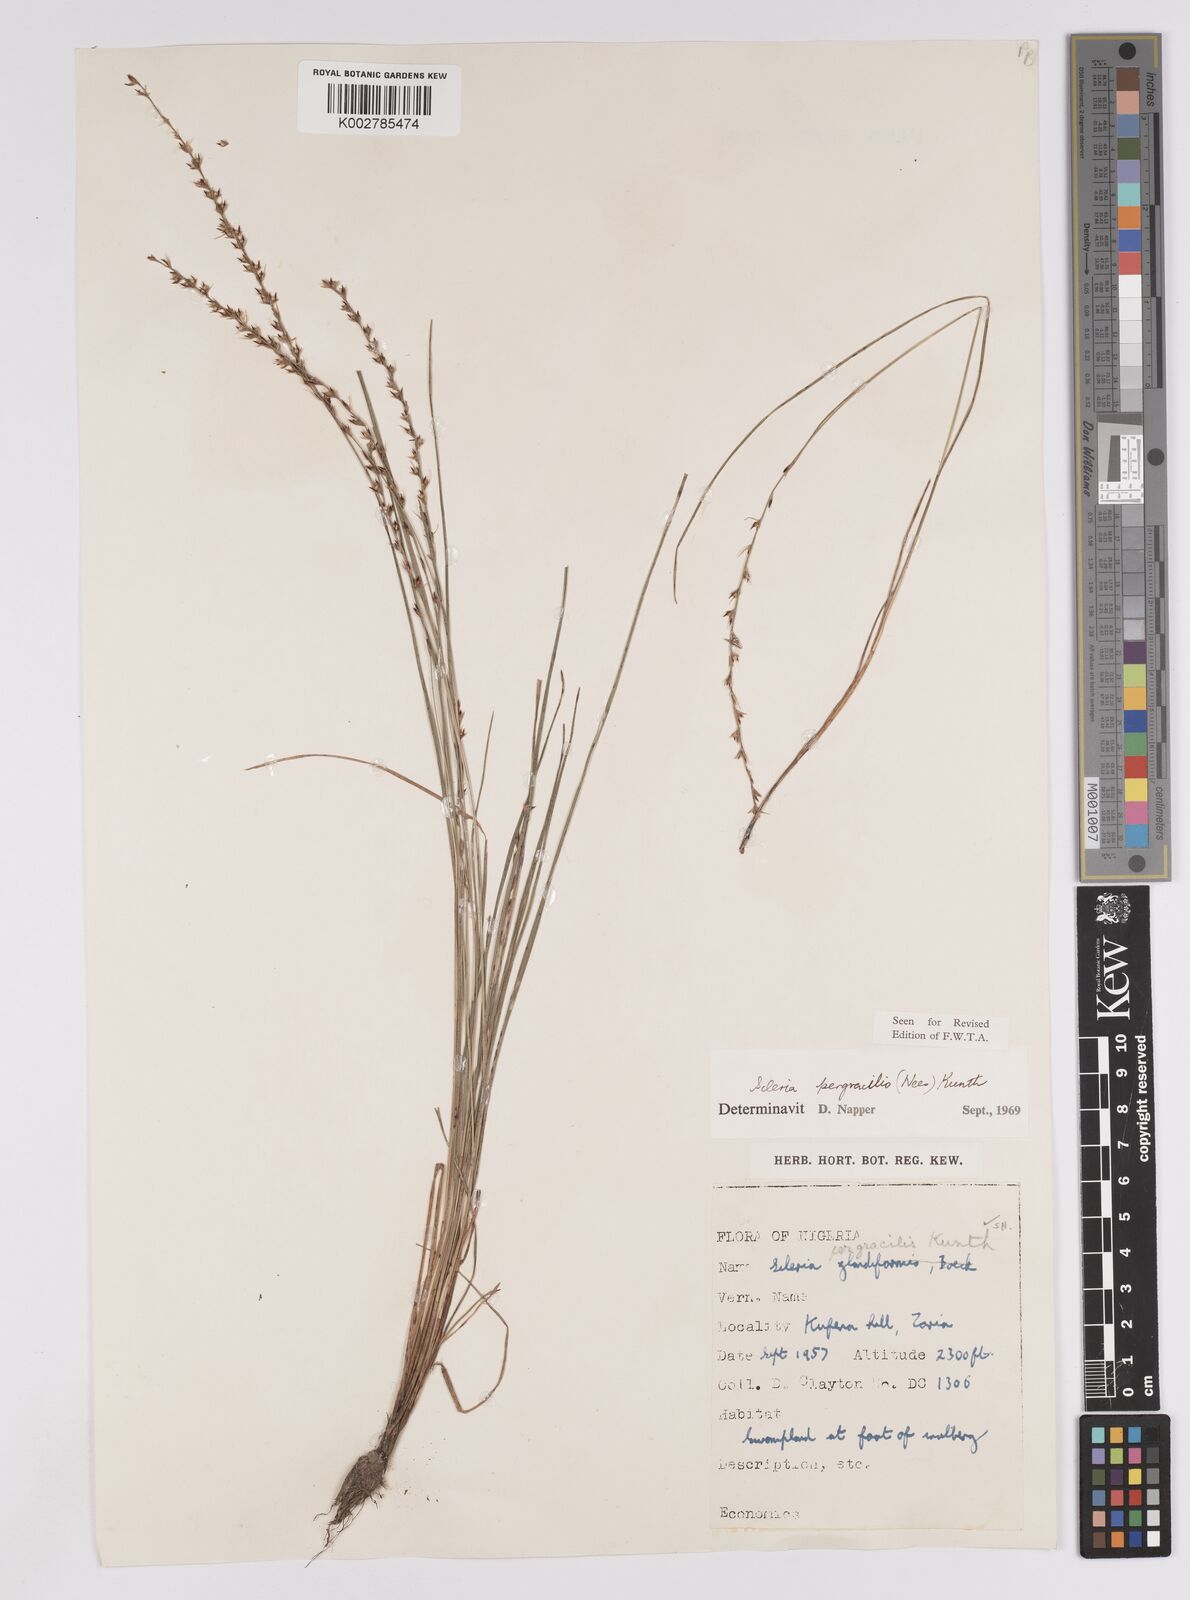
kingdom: Plantae
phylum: Tracheophyta
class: Liliopsida
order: Poales
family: Cyperaceae
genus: Scleria
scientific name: Scleria pergracilis
